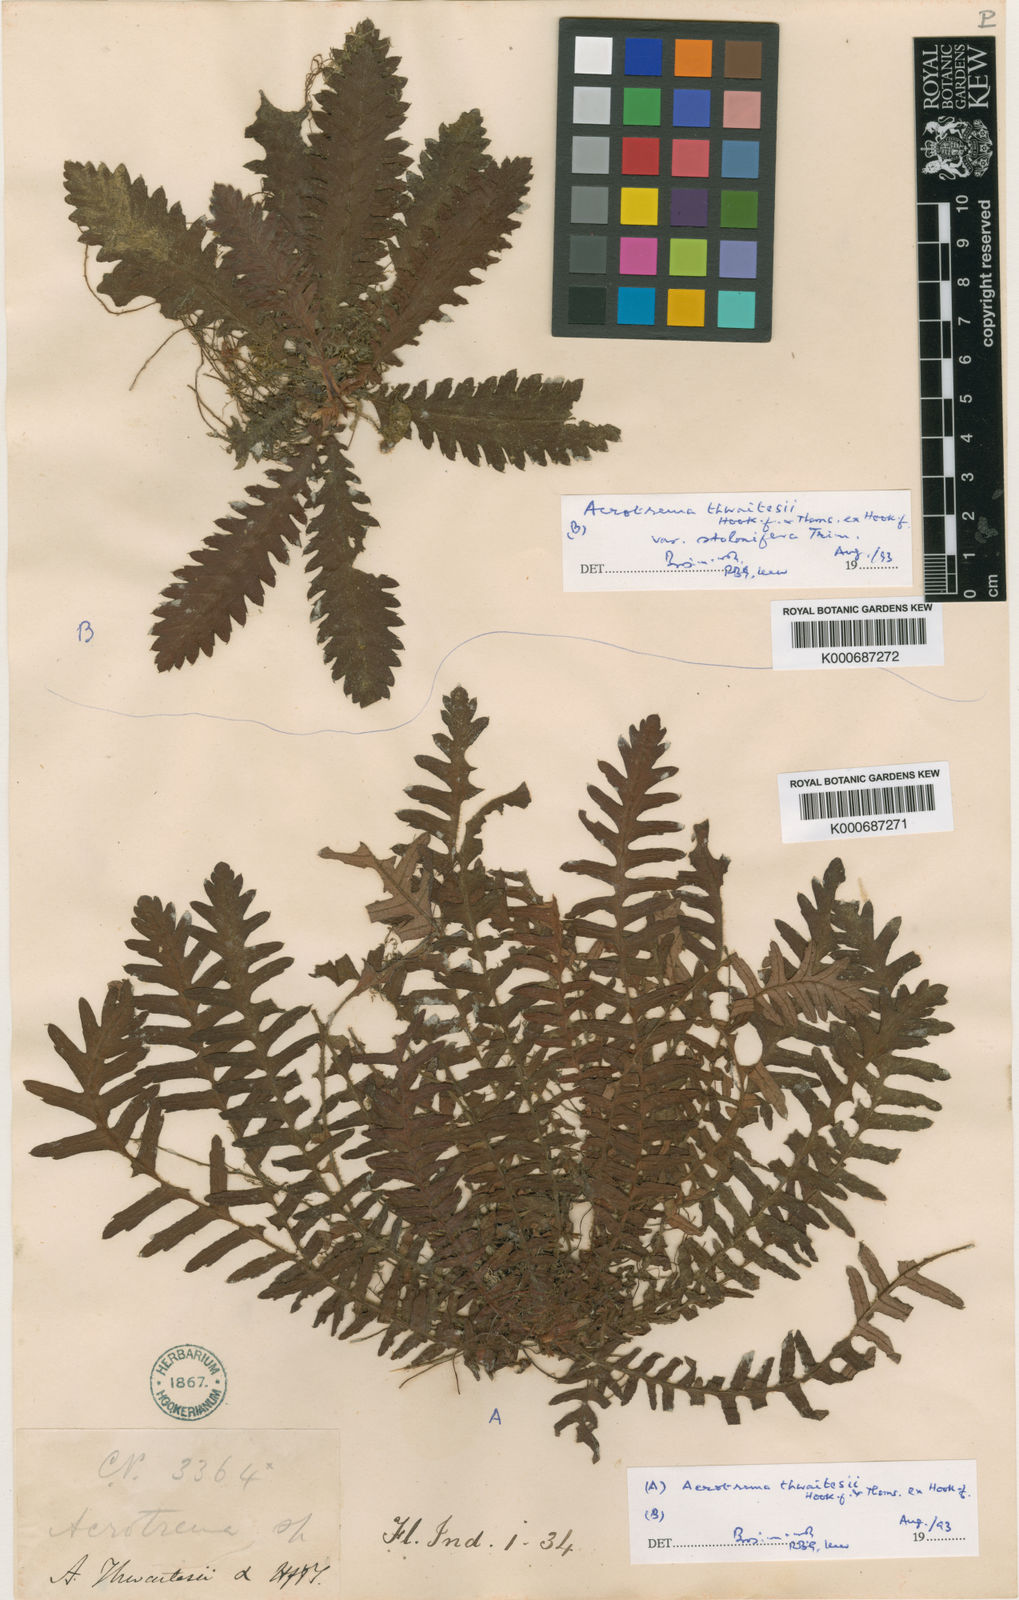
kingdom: Plantae
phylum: Tracheophyta
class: Magnoliopsida
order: Dilleniales
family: Dilleniaceae
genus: Acrotrema
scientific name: Acrotrema thwaitesii
